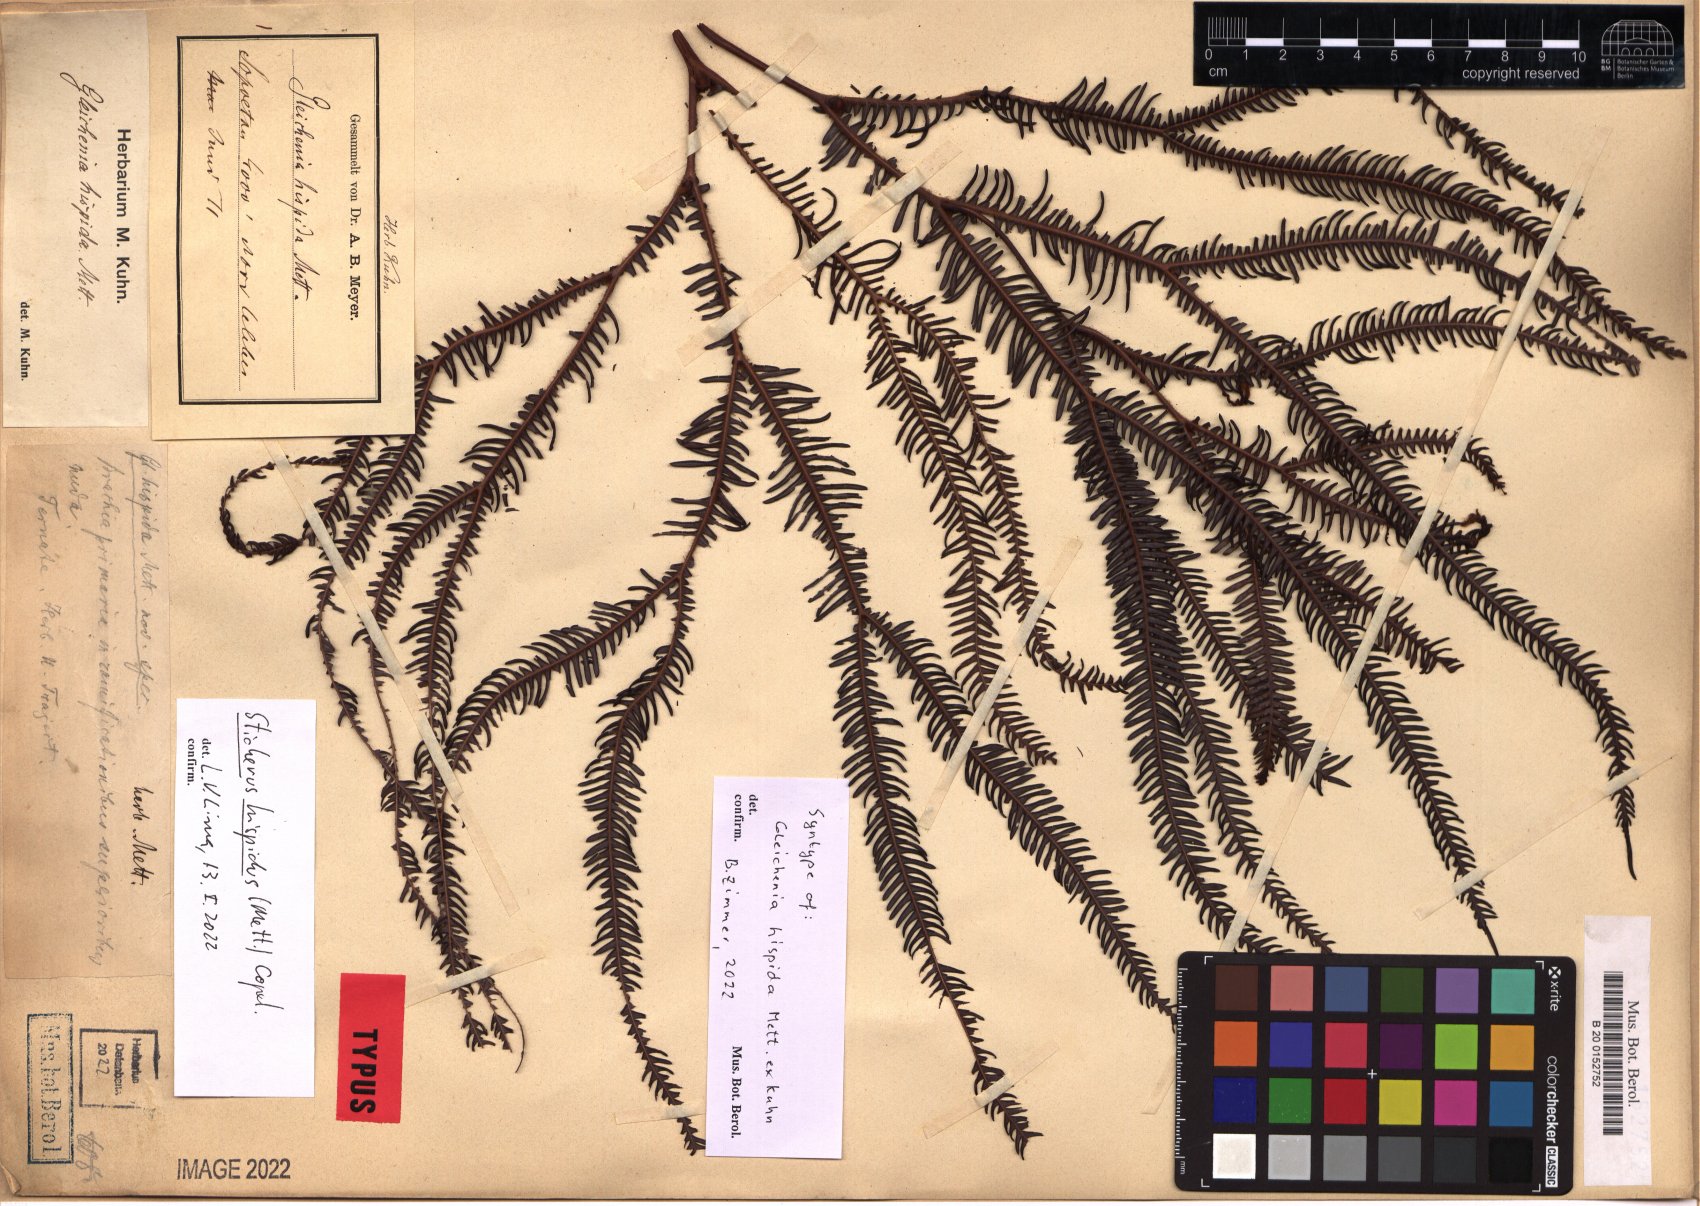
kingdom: Plantae
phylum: Tracheophyta
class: Polypodiopsida
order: Gleicheniales
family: Gleicheniaceae
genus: Sticherus
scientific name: Sticherus hispidus
